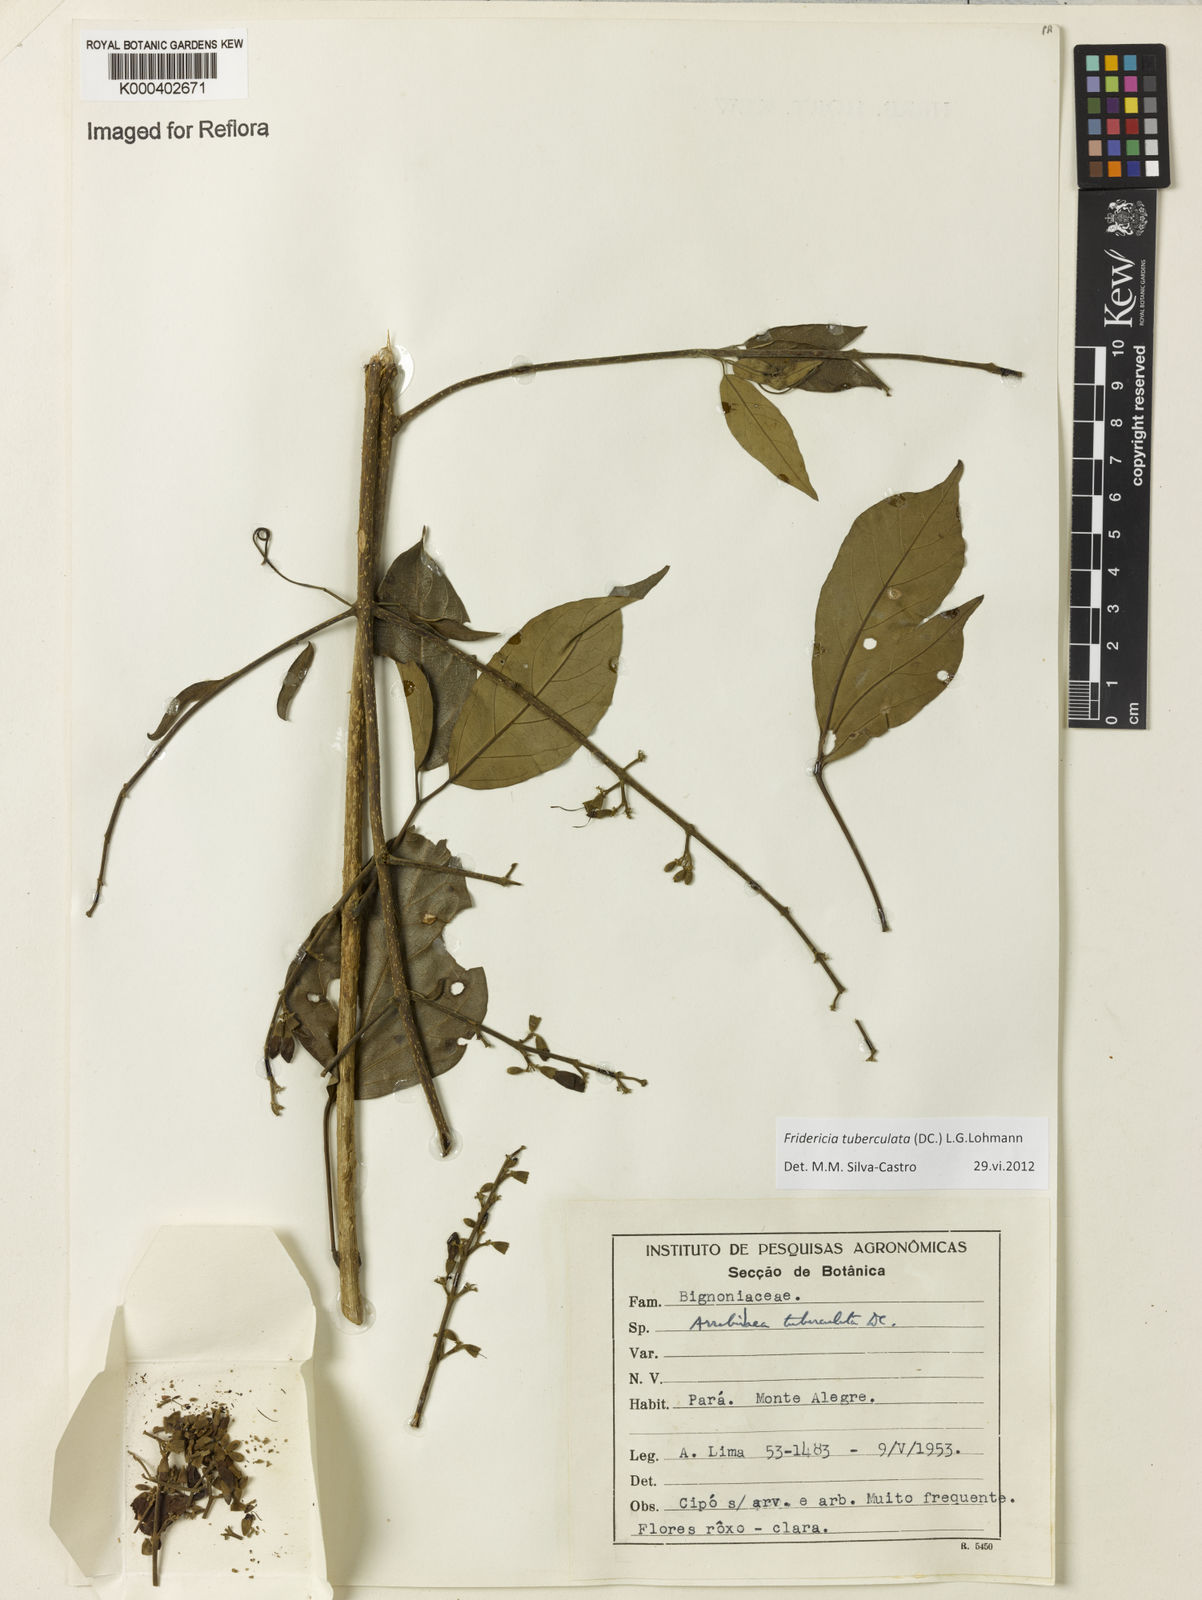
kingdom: Plantae
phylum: Tracheophyta
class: Magnoliopsida
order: Lamiales
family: Bignoniaceae
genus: Fridericia
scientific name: Fridericia tuberculata
